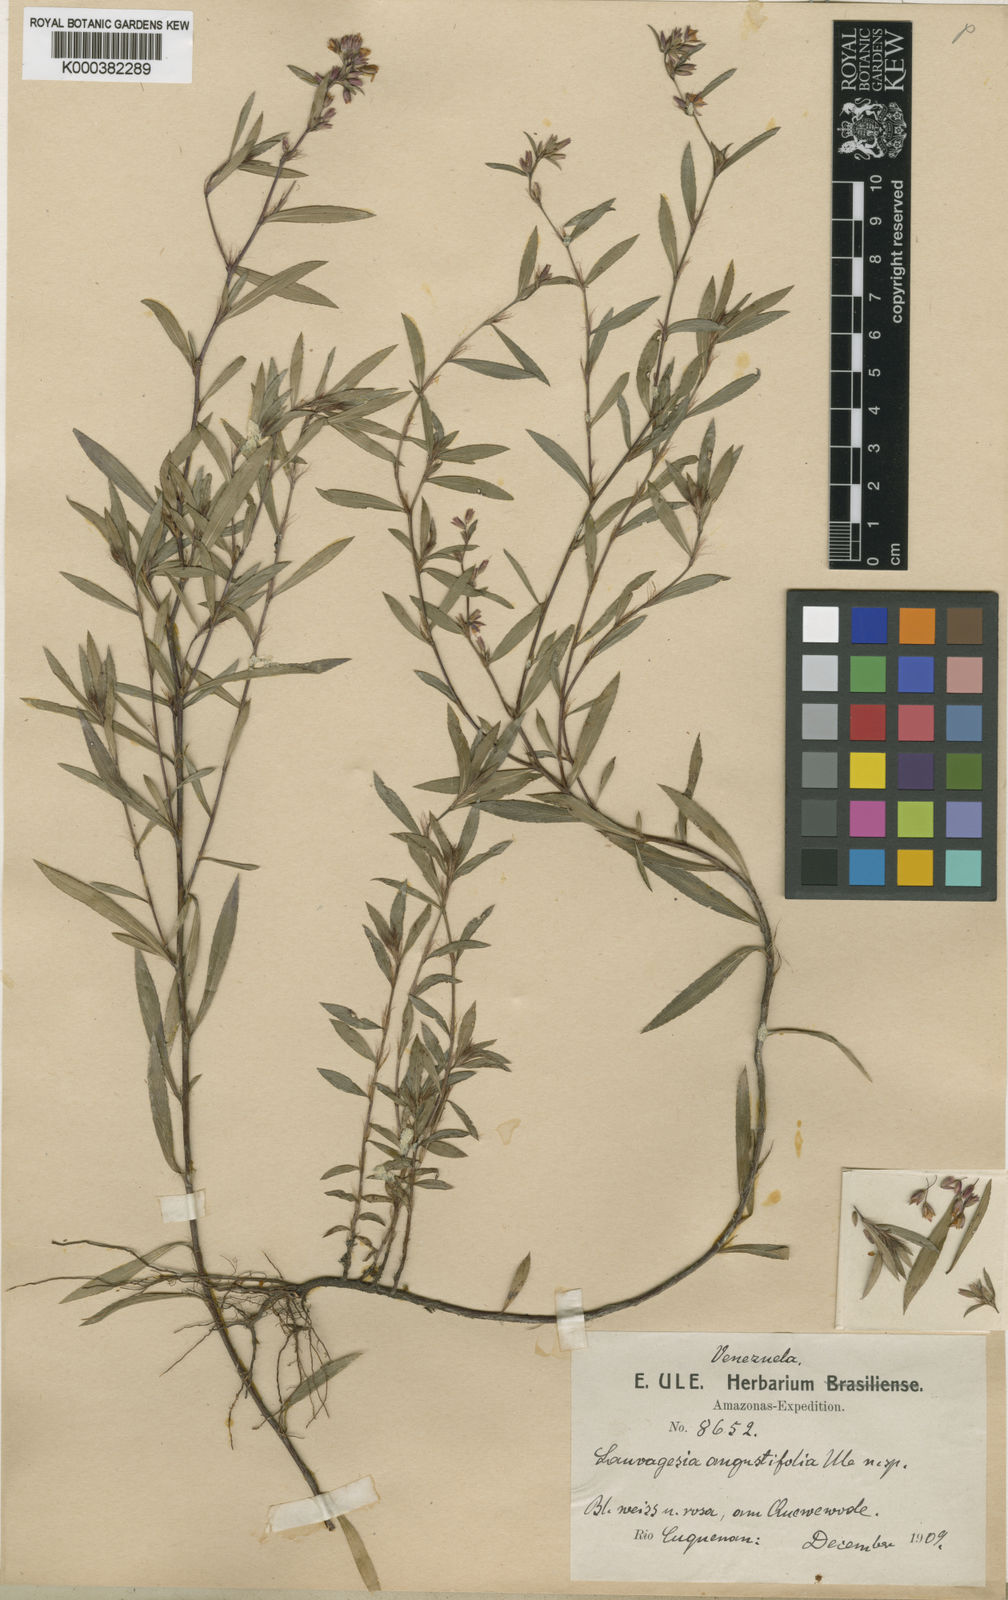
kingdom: Plantae
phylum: Tracheophyta
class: Magnoliopsida
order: Malpighiales
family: Ochnaceae
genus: Sauvagesia
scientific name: Sauvagesia angustifolia
